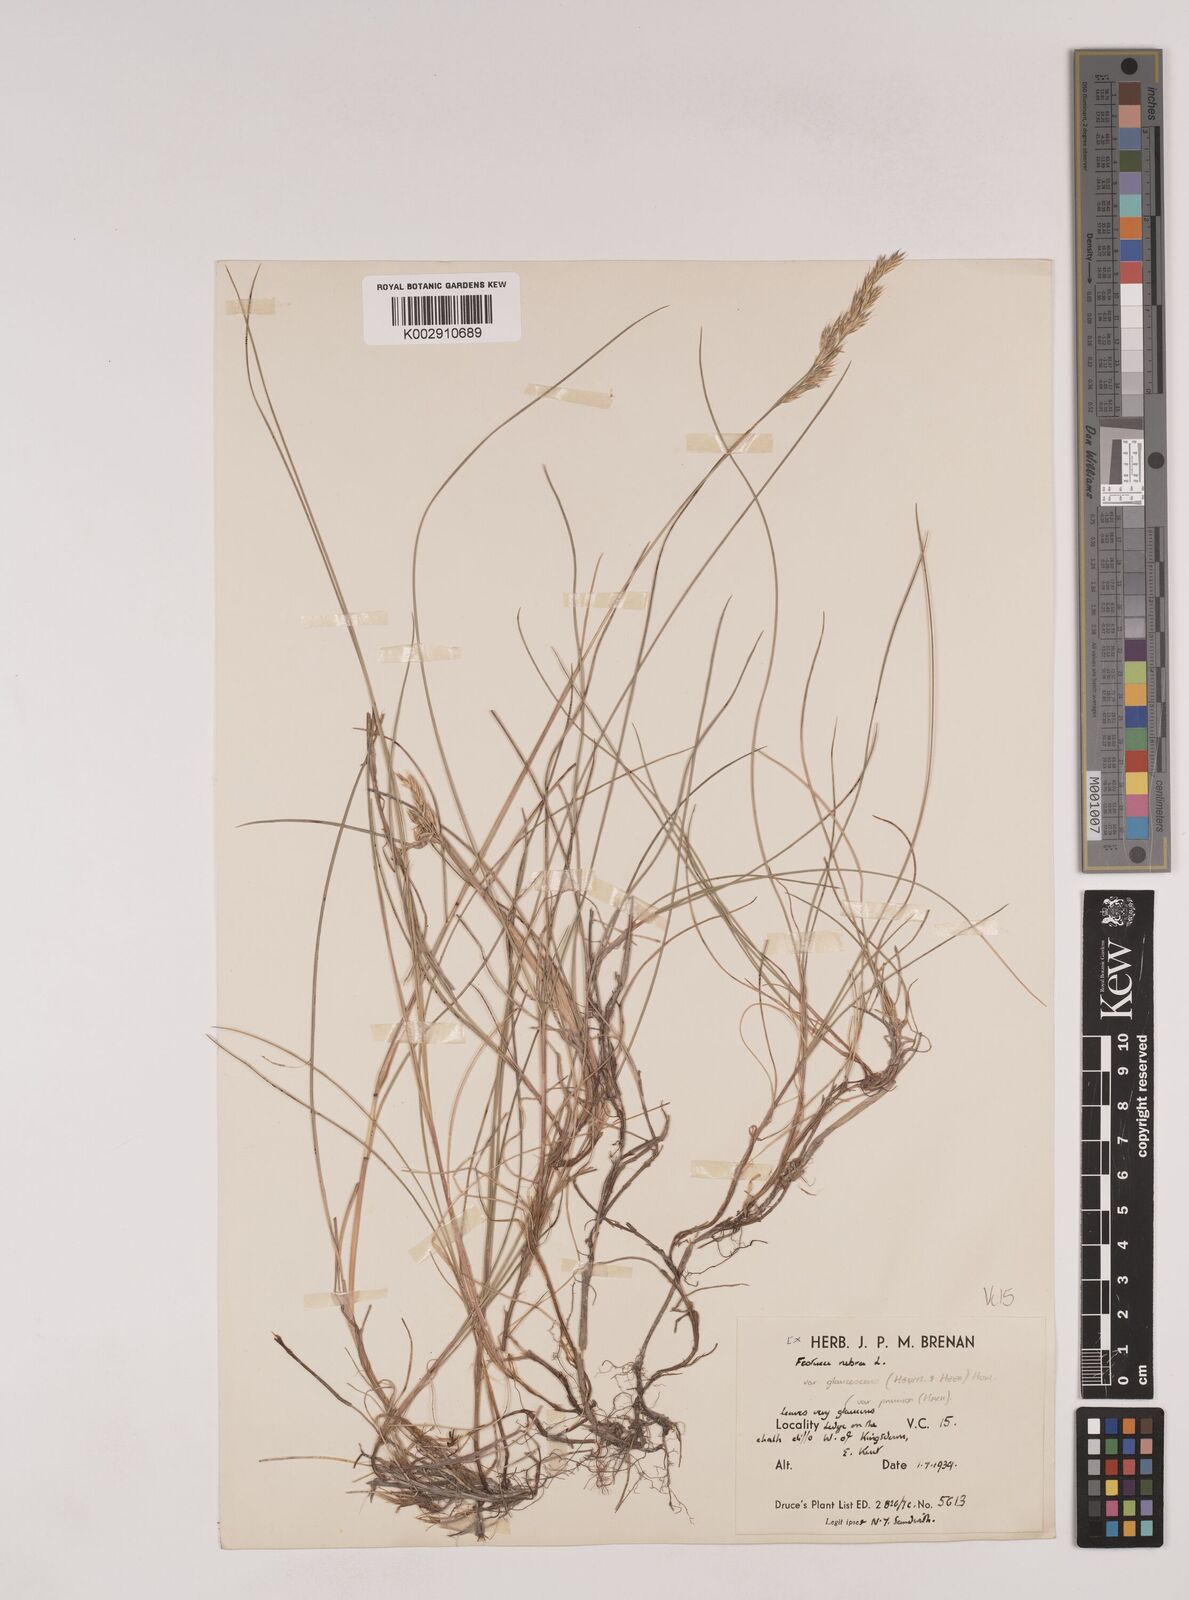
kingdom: Plantae
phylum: Tracheophyta
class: Liliopsida
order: Poales
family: Poaceae
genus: Festuca
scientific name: Festuca rubra
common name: Red fescue
